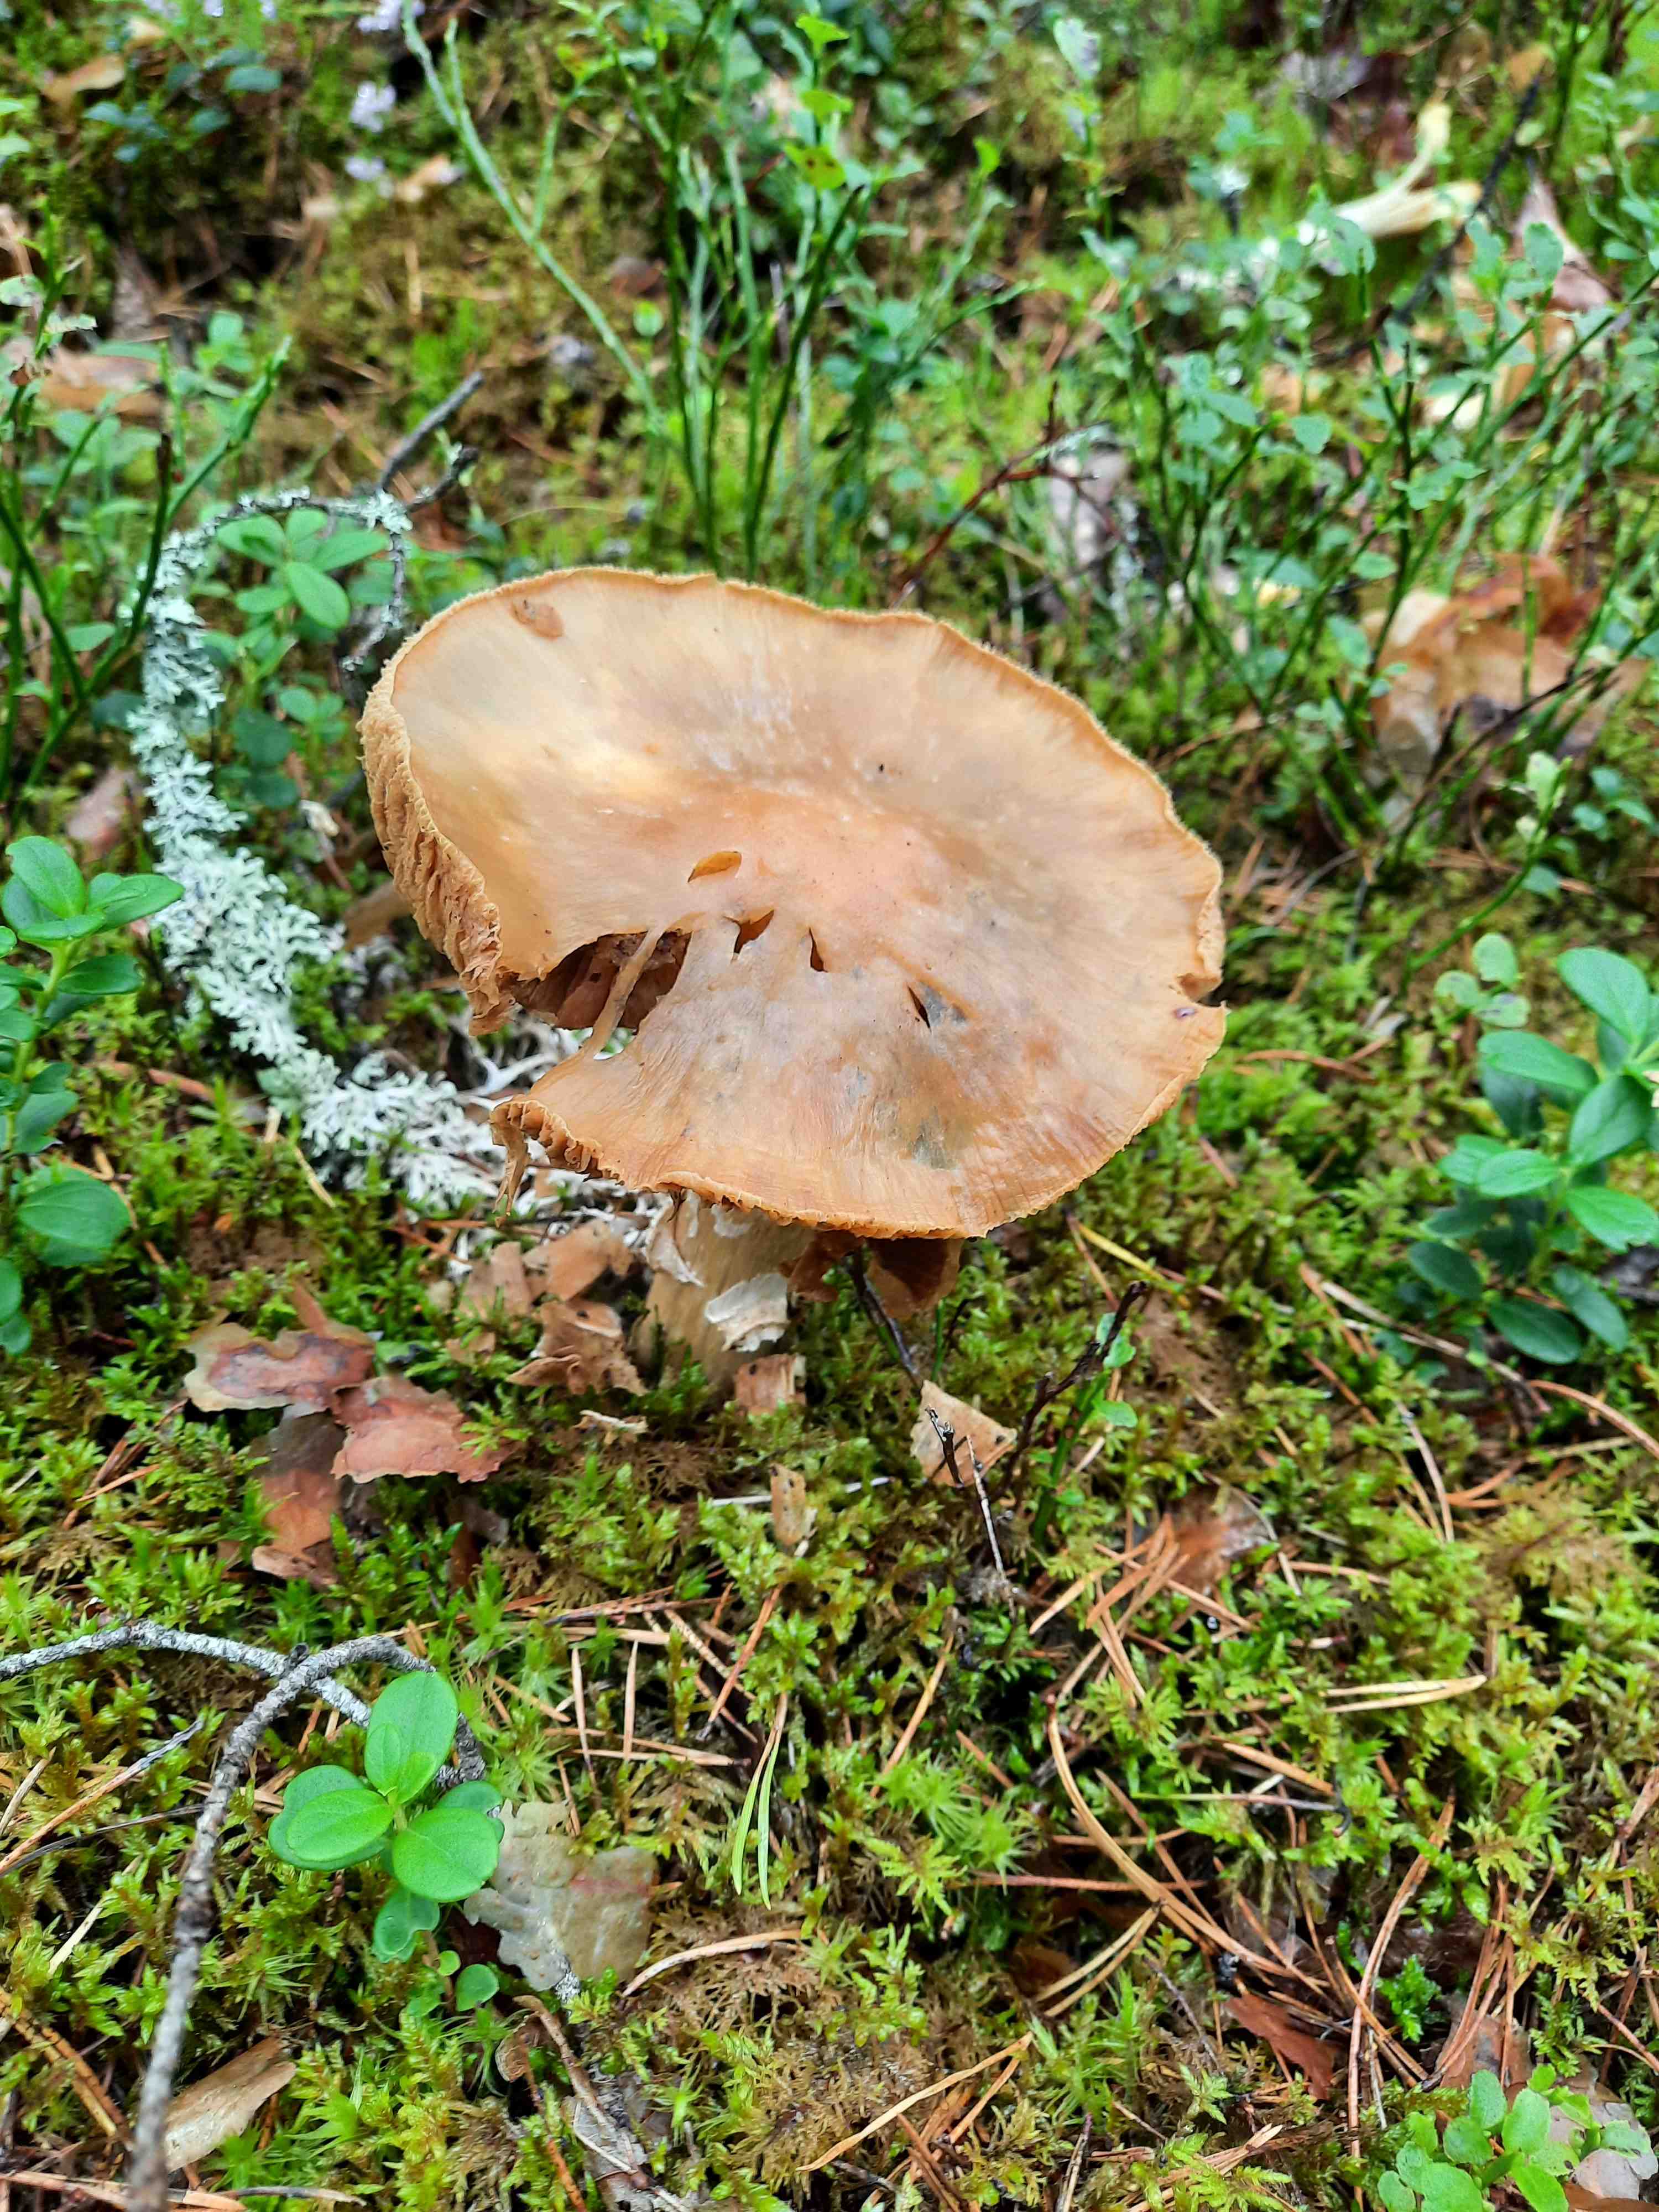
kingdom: Fungi
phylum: Basidiomycota
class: Agaricomycetes
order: Agaricales
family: Cortinariaceae
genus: Cortinarius
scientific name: Cortinarius caperatus
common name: klidhat
